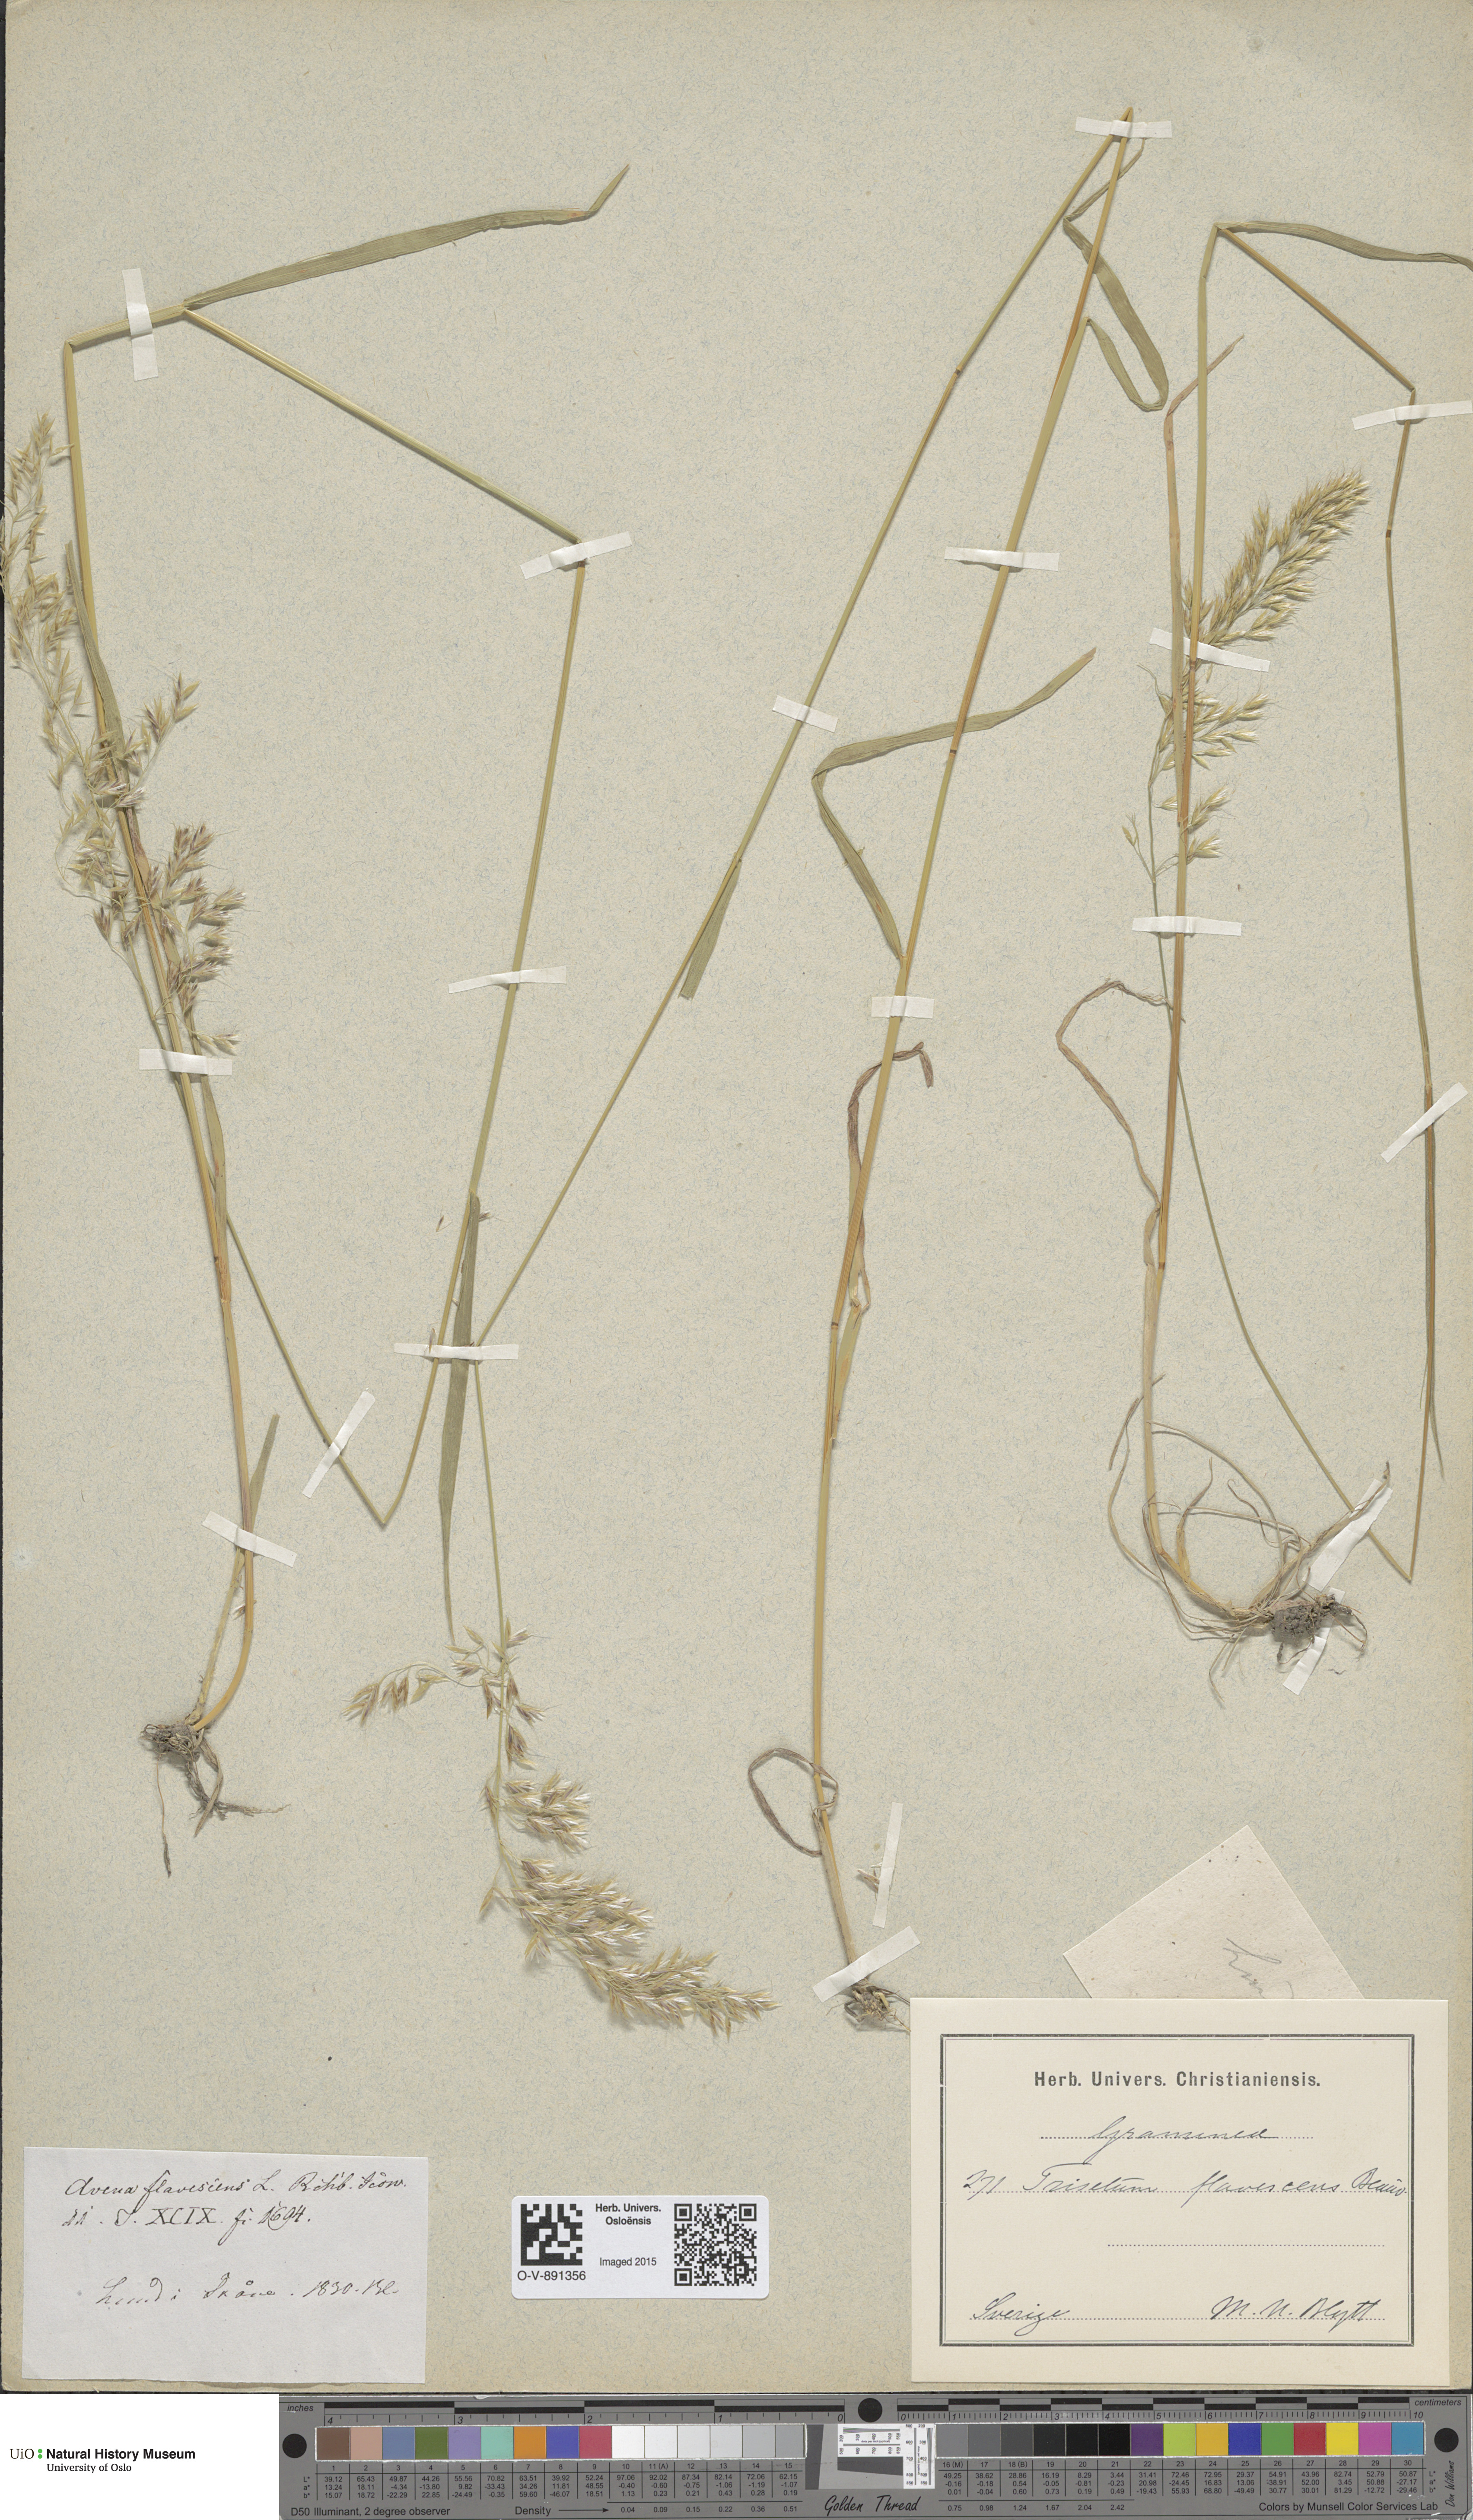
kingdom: Plantae
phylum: Tracheophyta
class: Liliopsida
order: Poales
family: Poaceae
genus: Trisetum
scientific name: Trisetum flavescens
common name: Yellow oat-grass
